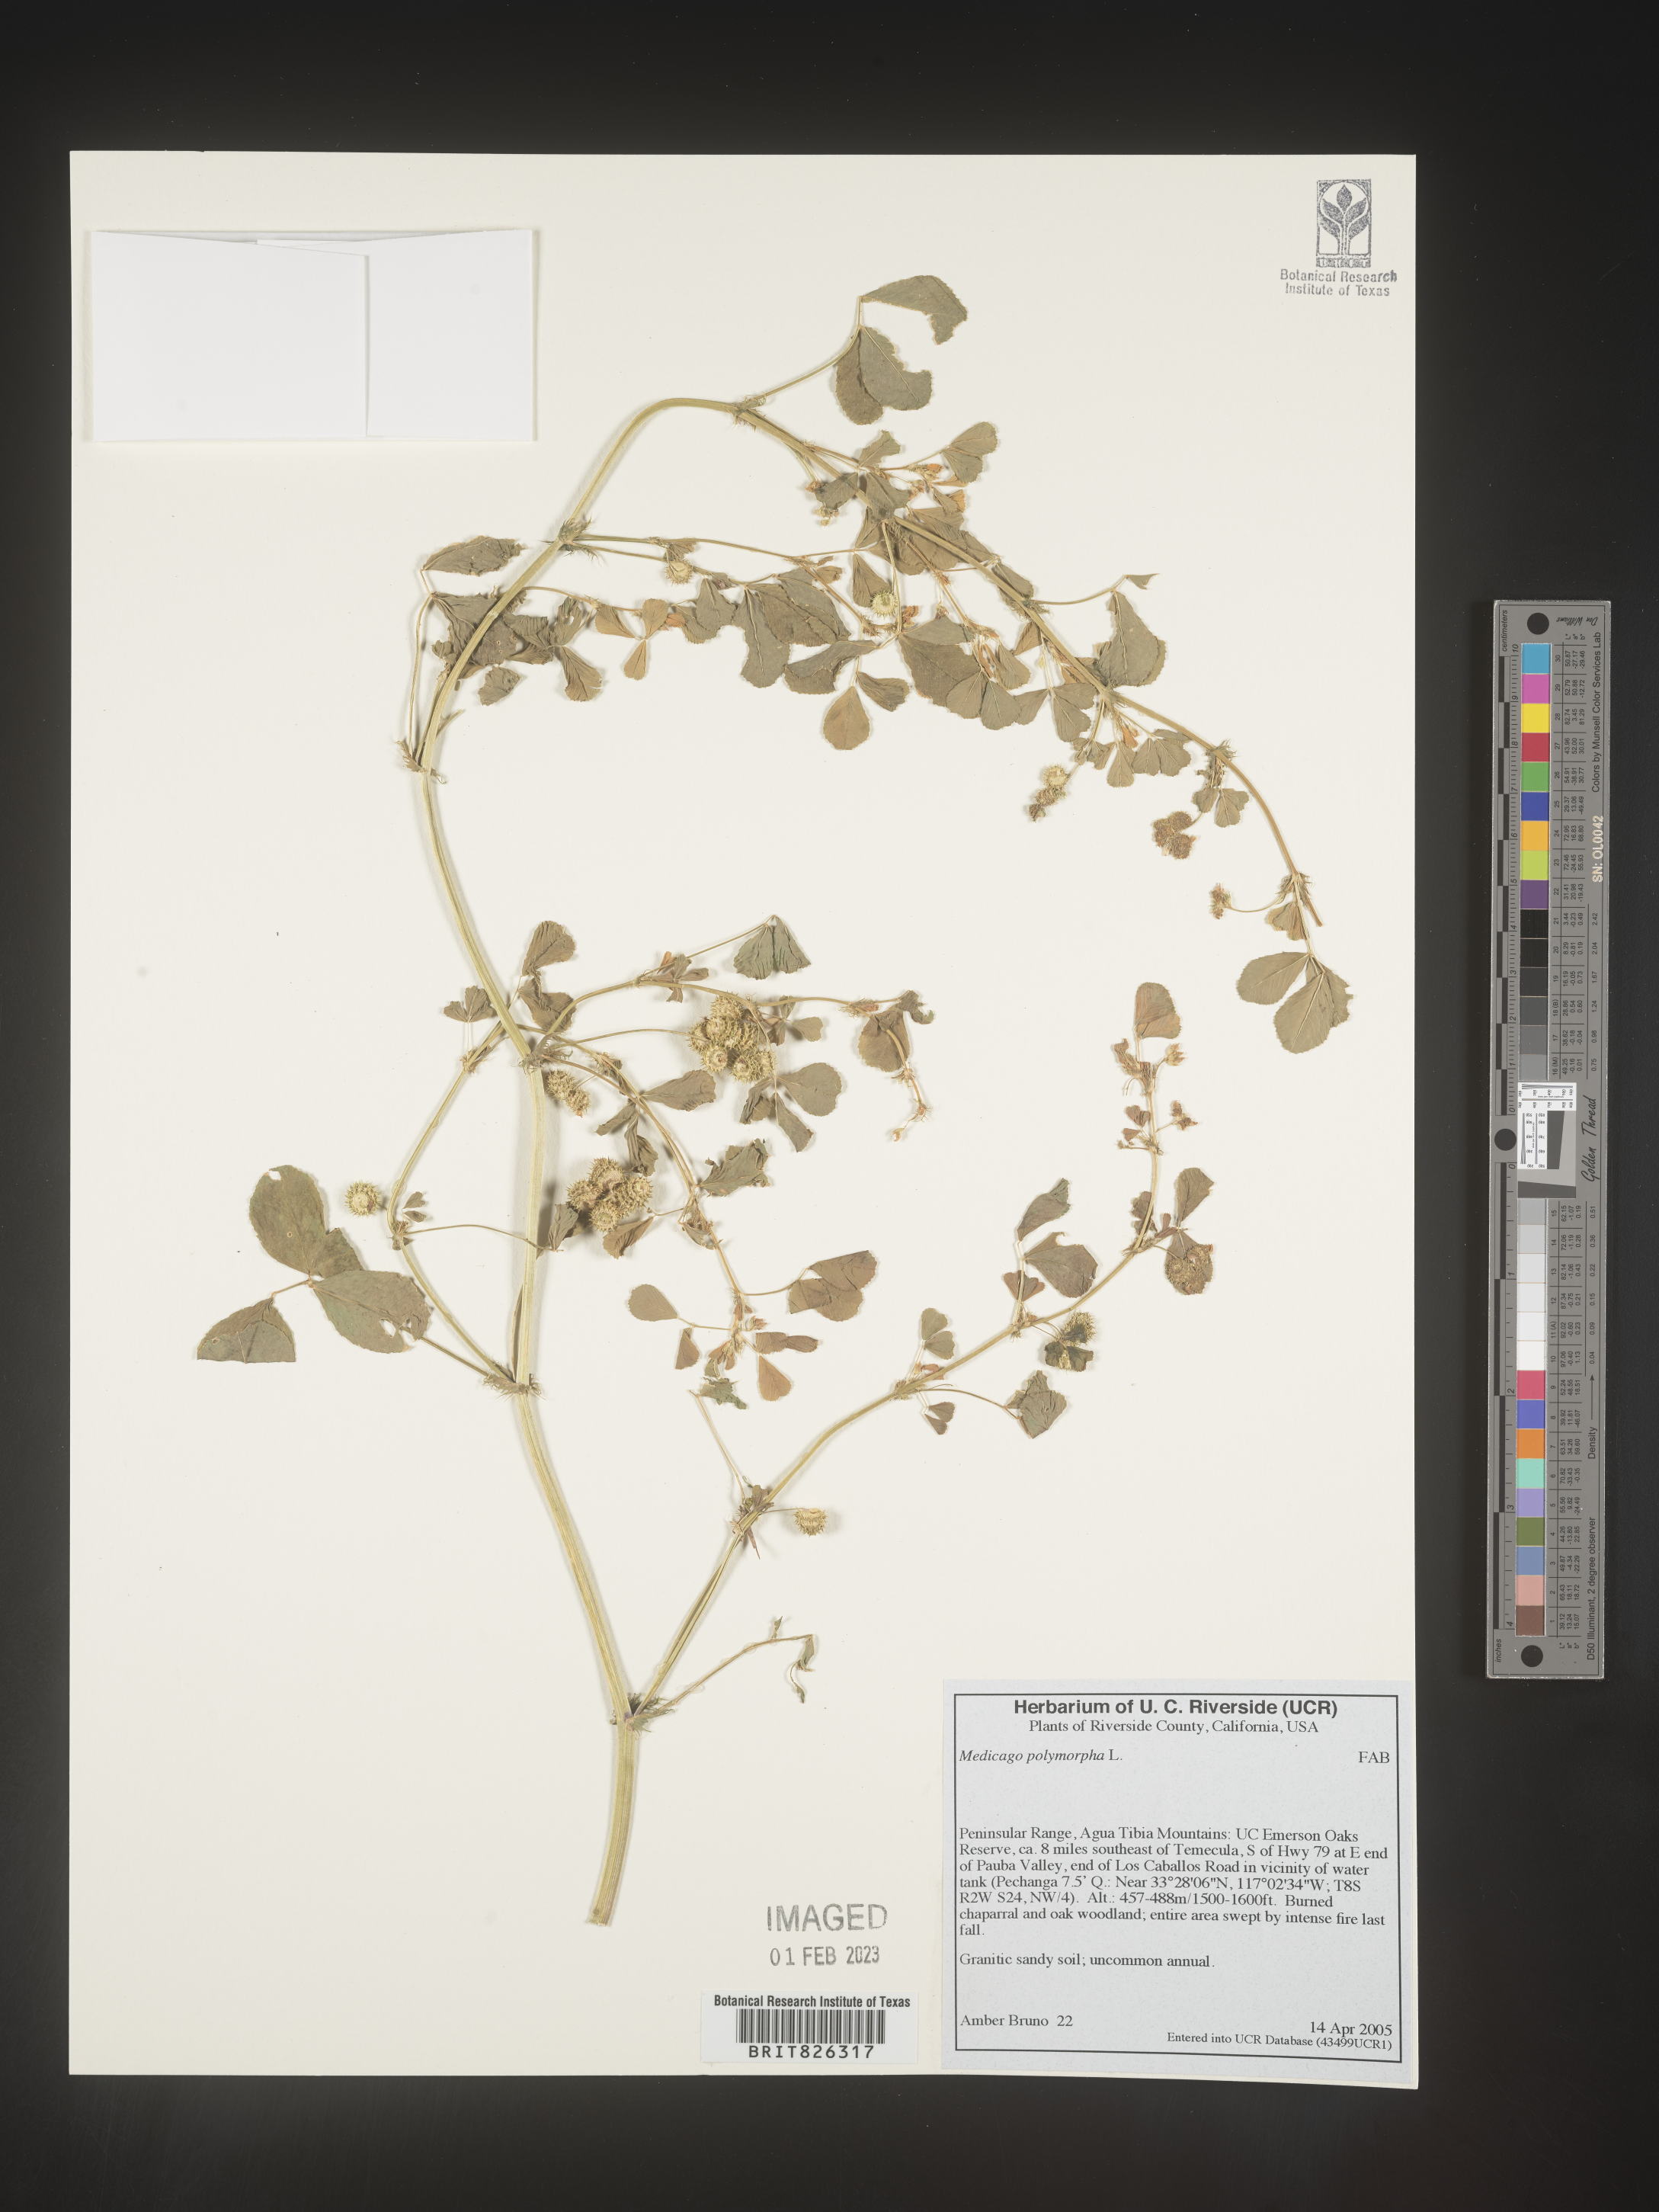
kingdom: Plantae
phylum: Tracheophyta
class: Magnoliopsida
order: Fabales
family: Fabaceae
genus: Medicago
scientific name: Medicago polymorpha
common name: Burclover
